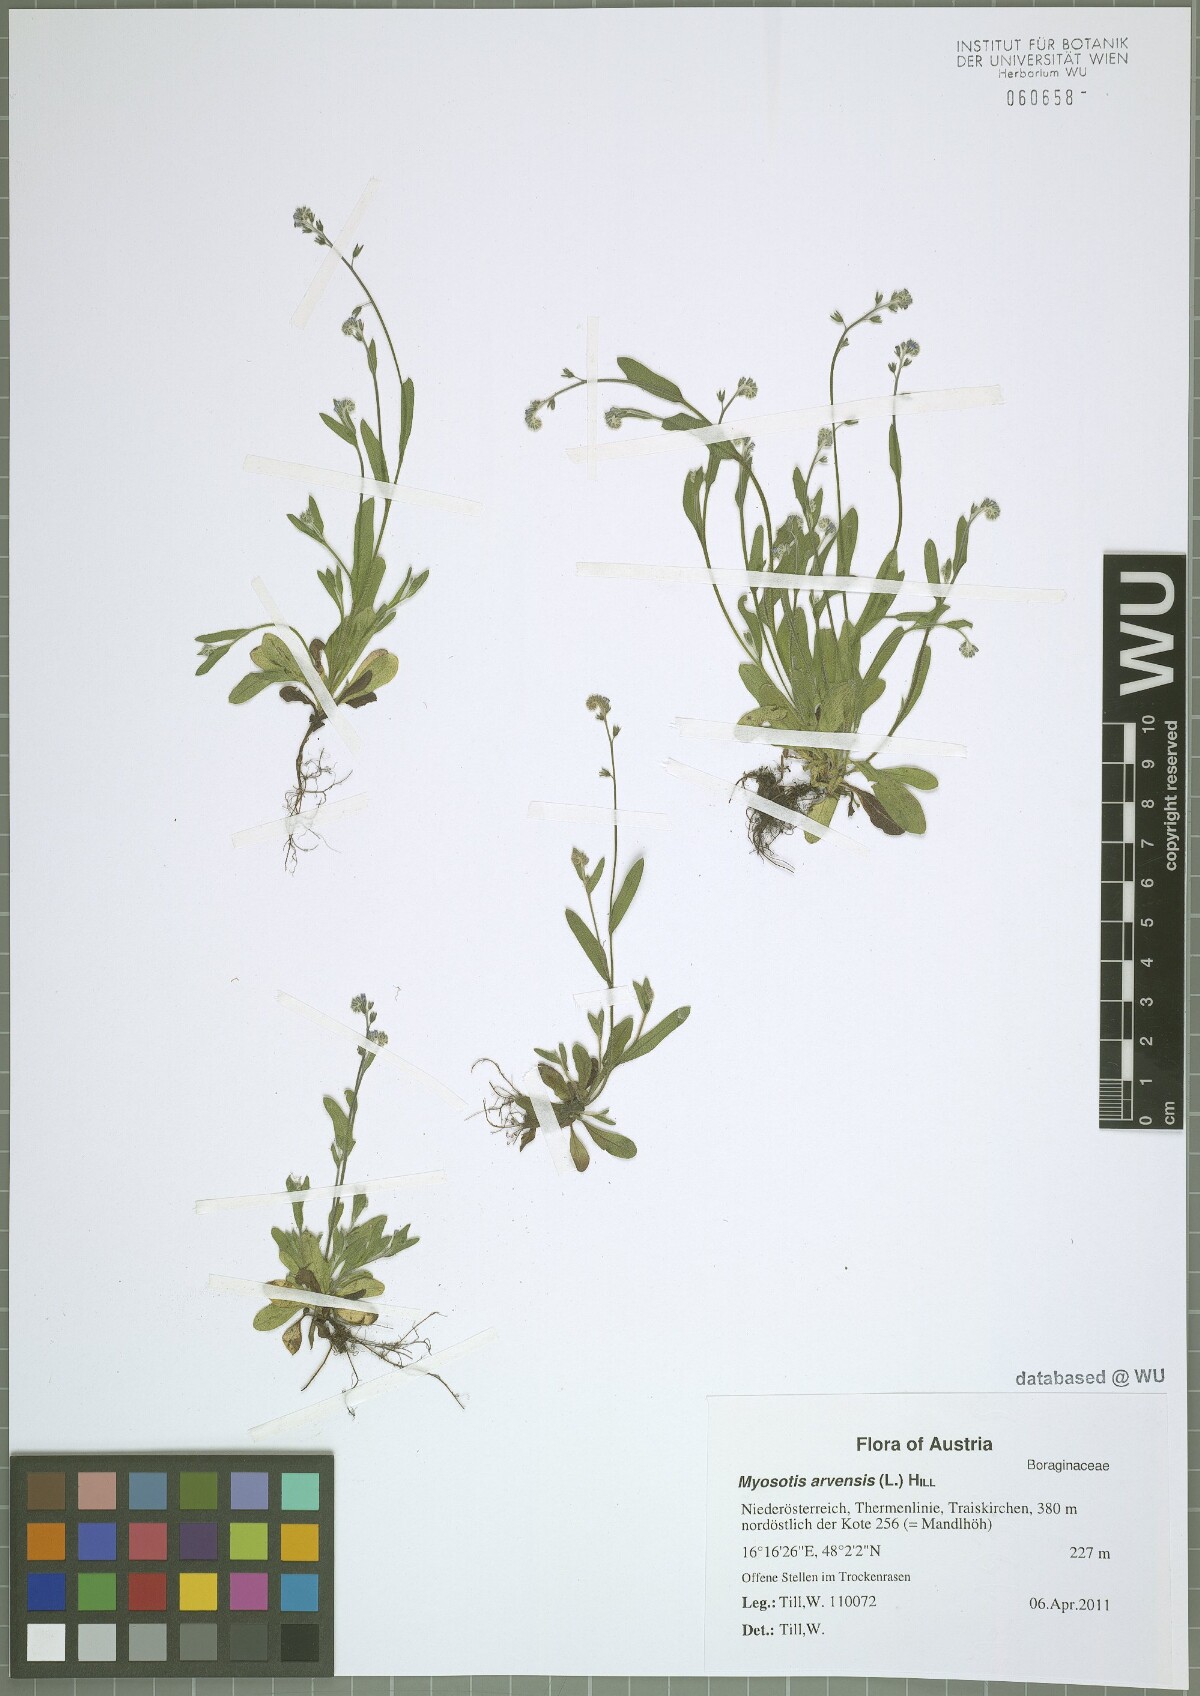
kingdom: Plantae
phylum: Tracheophyta
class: Magnoliopsida
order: Boraginales
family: Boraginaceae
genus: Myosotis
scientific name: Myosotis arvensis
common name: Field forget-me-not
